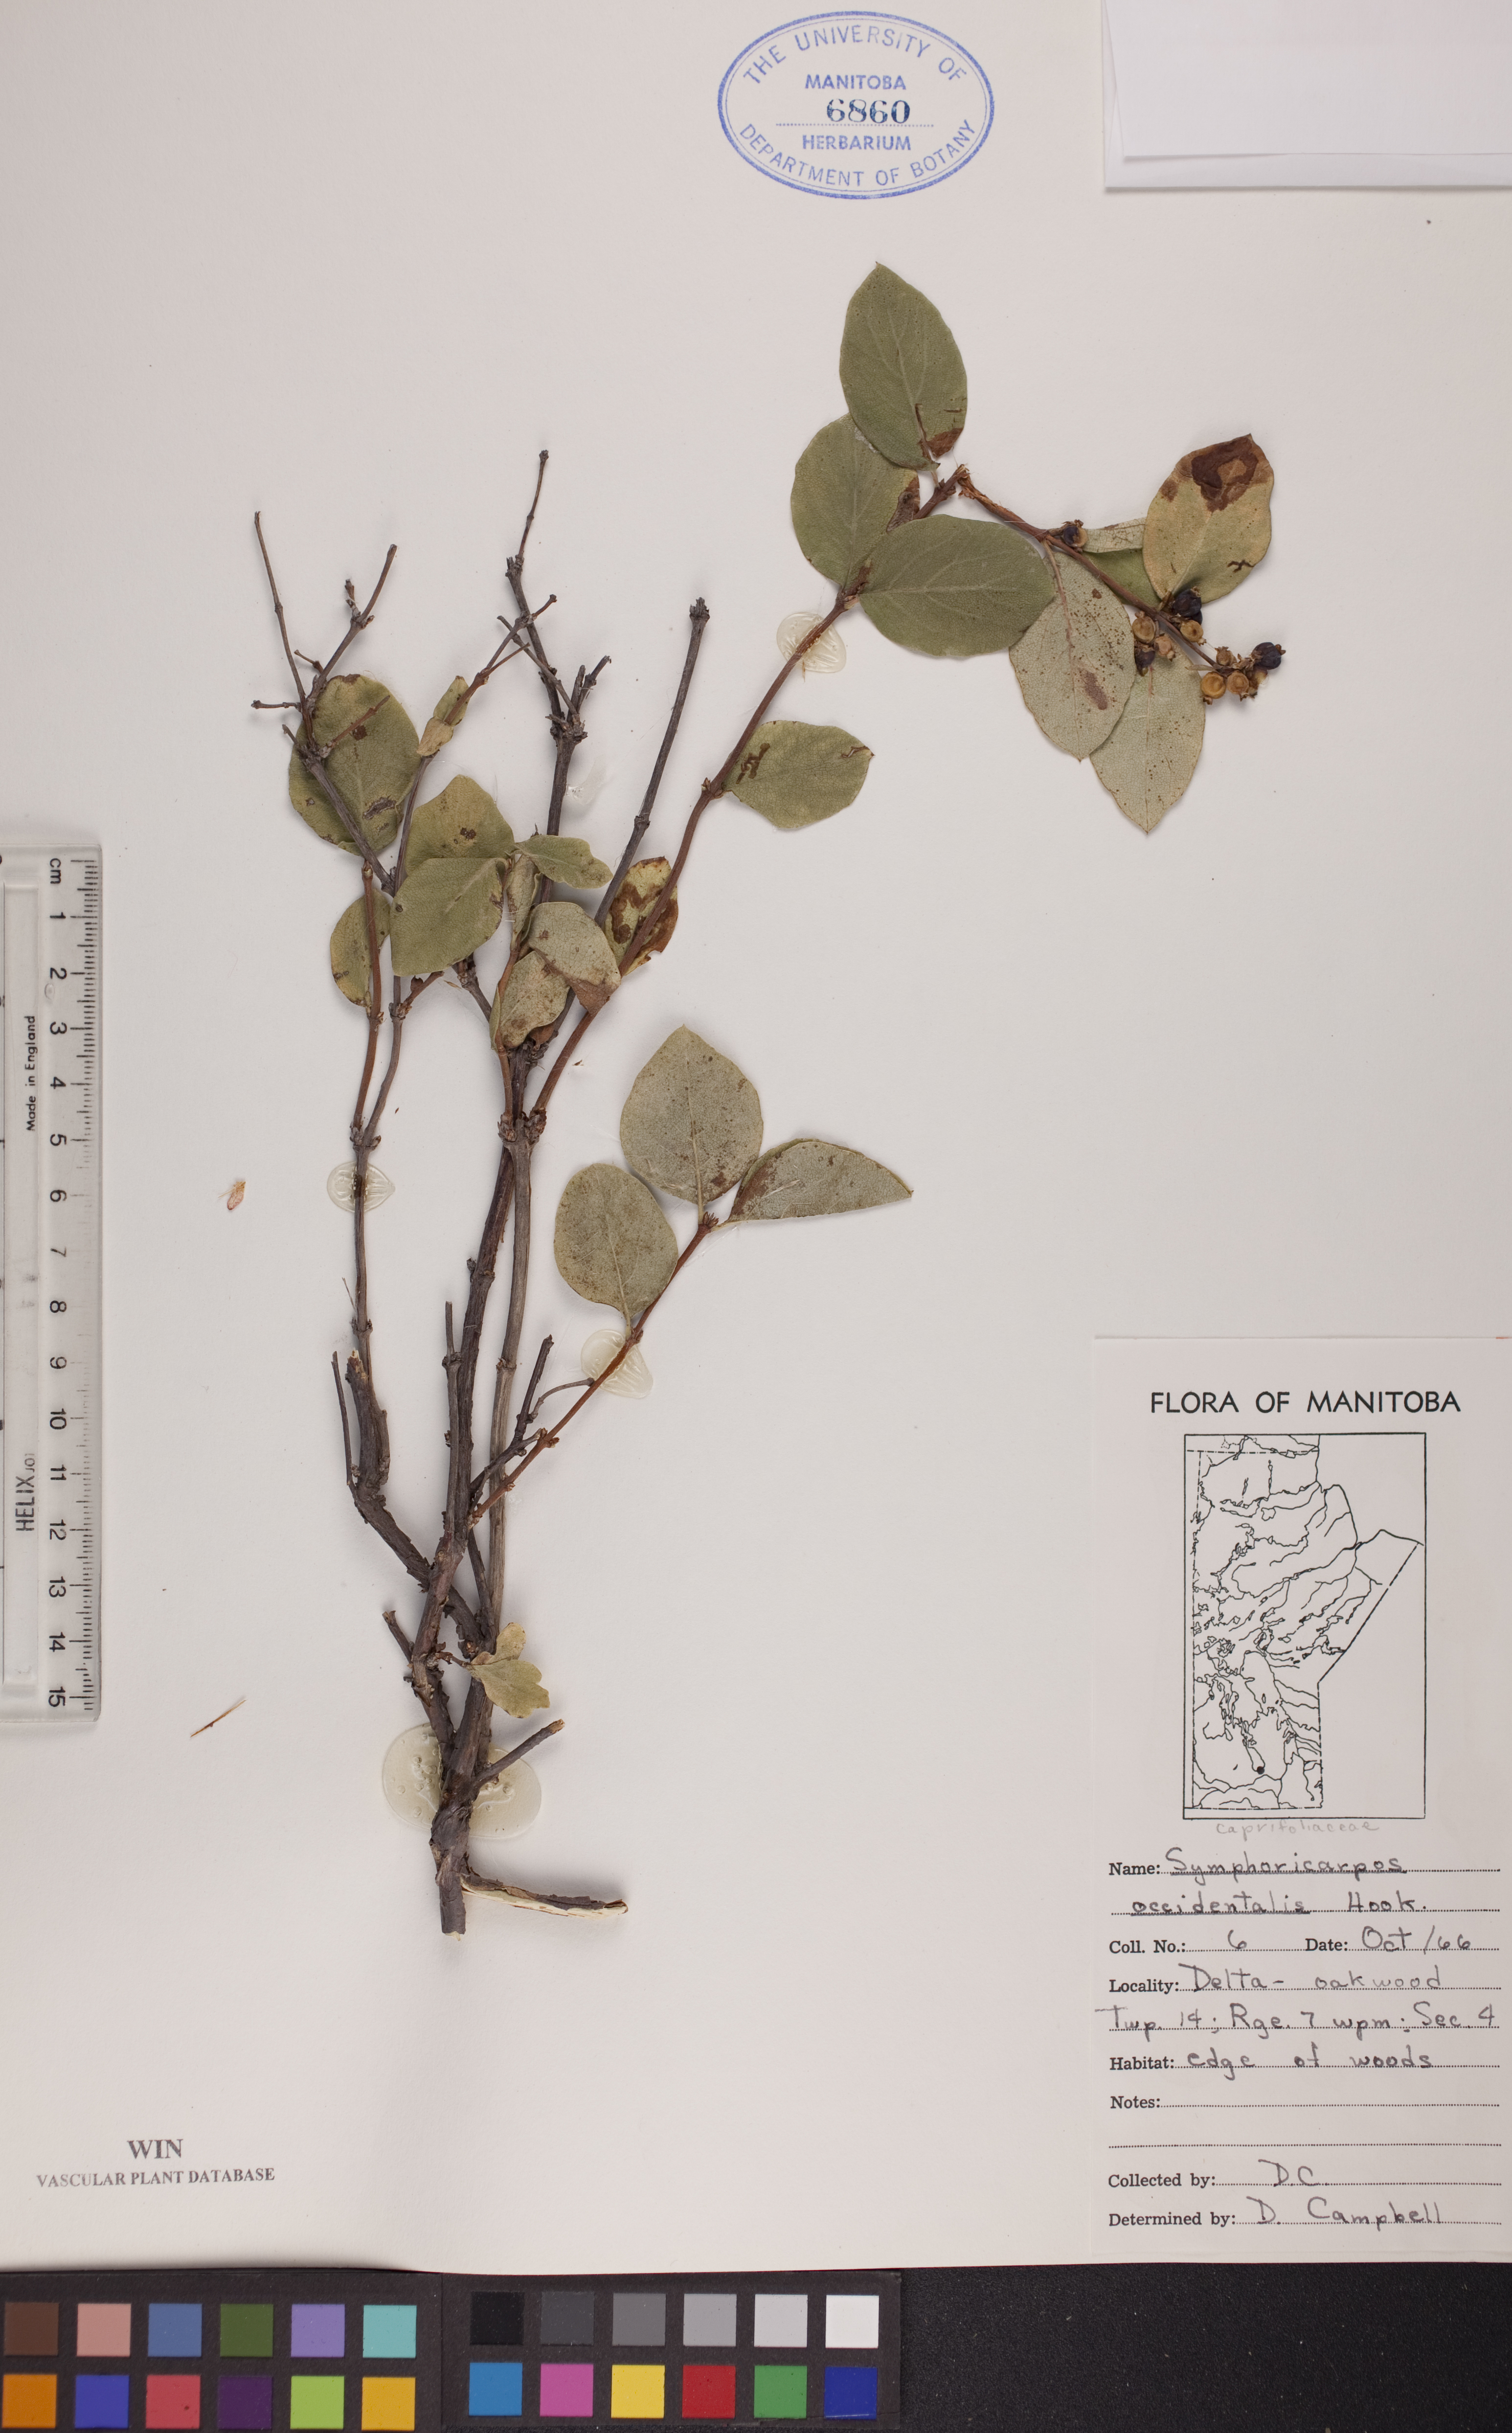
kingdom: Plantae
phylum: Tracheophyta
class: Magnoliopsida
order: Dipsacales
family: Caprifoliaceae
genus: Symphoricarpos
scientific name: Symphoricarpos occidentalis
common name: Wolfberry
